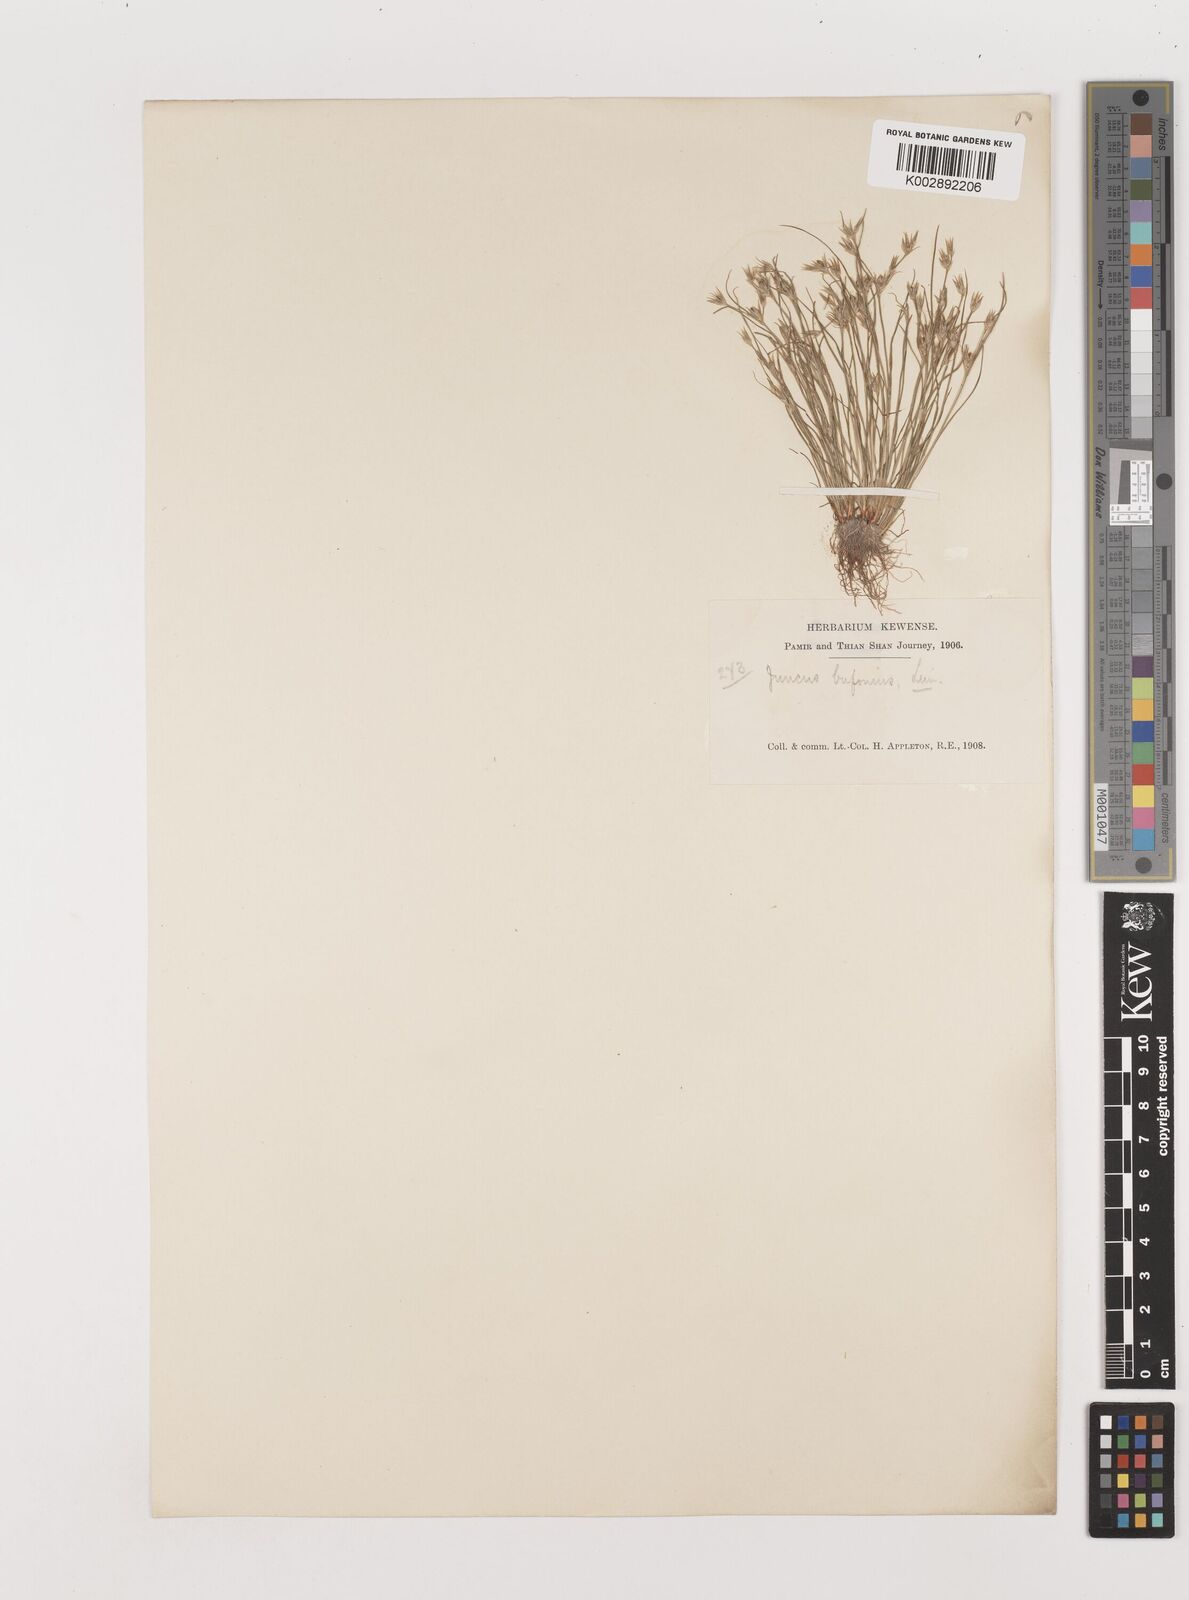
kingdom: Plantae
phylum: Tracheophyta
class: Liliopsida
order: Poales
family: Juncaceae
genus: Juncus
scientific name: Juncus bufonius
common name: Toad rush
